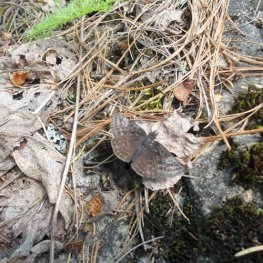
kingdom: Animalia
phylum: Arthropoda
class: Insecta
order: Lepidoptera
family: Hesperiidae
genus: Erynnis
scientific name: Erynnis icelus
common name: Dreamy Duskywing
